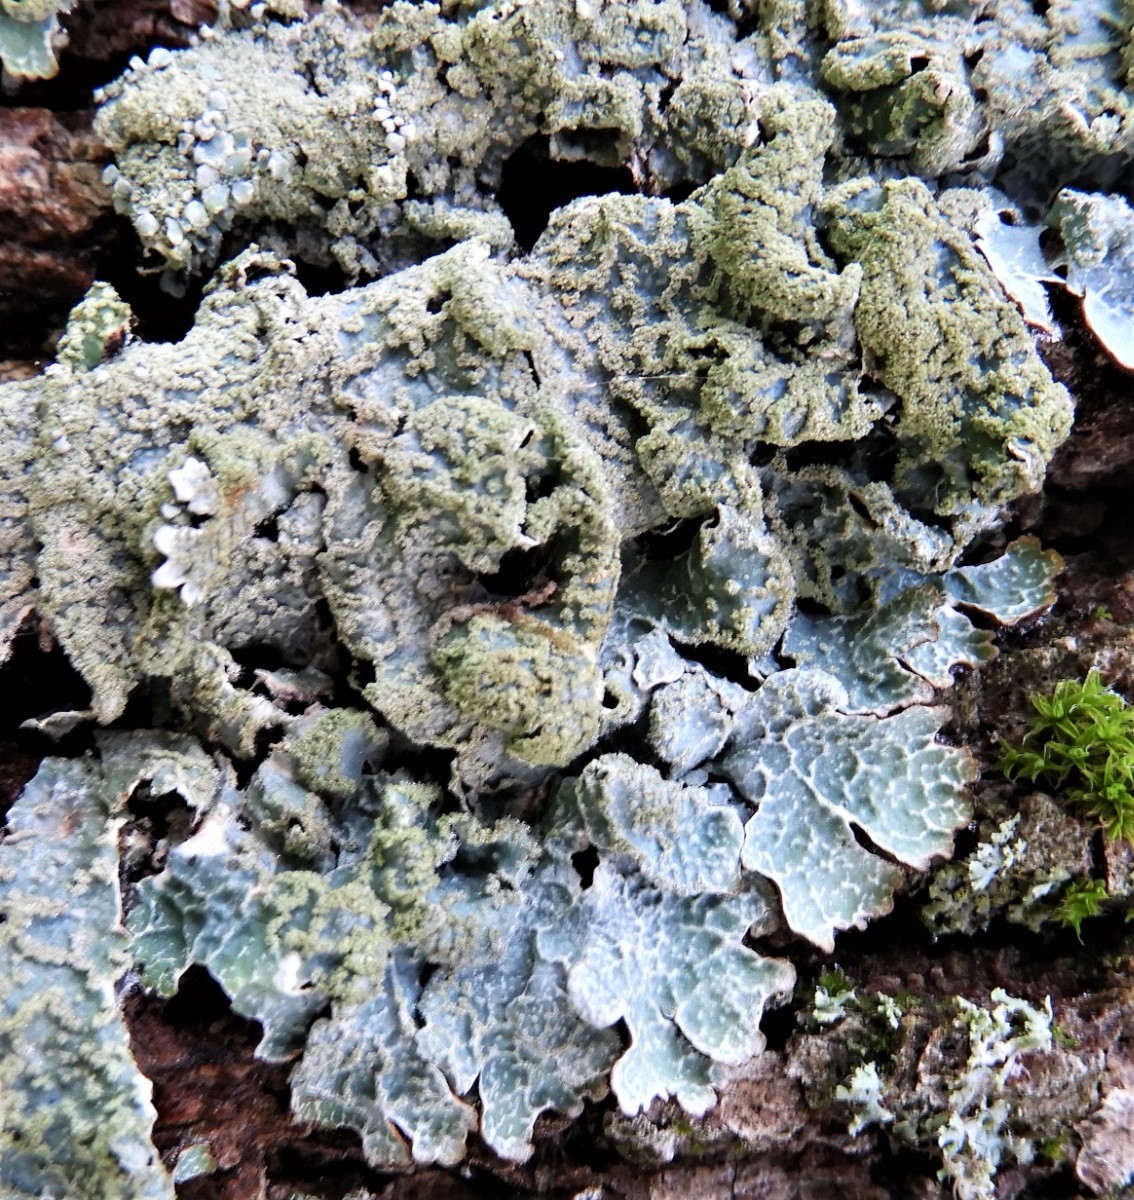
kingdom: Fungi
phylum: Ascomycota
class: Lecanoromycetes
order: Lecanorales
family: Parmeliaceae
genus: Parmelia
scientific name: Parmelia sulcata
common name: rynket skållav
